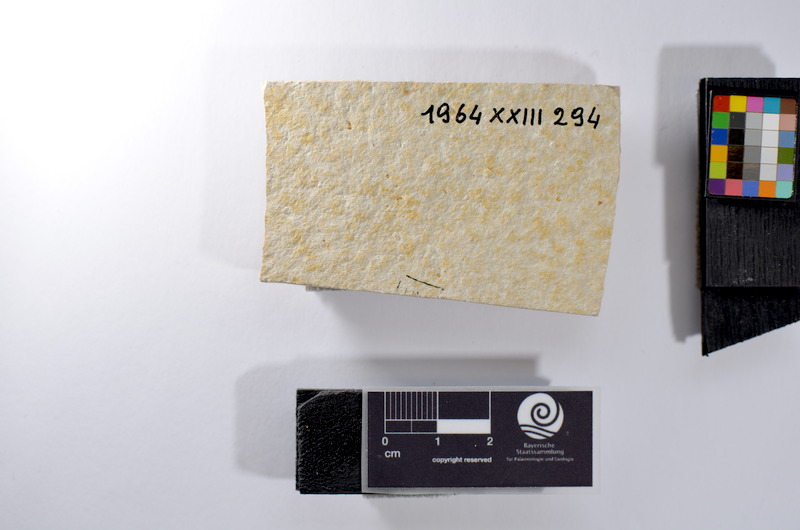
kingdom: Animalia
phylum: Chordata
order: Salmoniformes
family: Orthogonikleithridae
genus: Leptolepides
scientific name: Leptolepides
